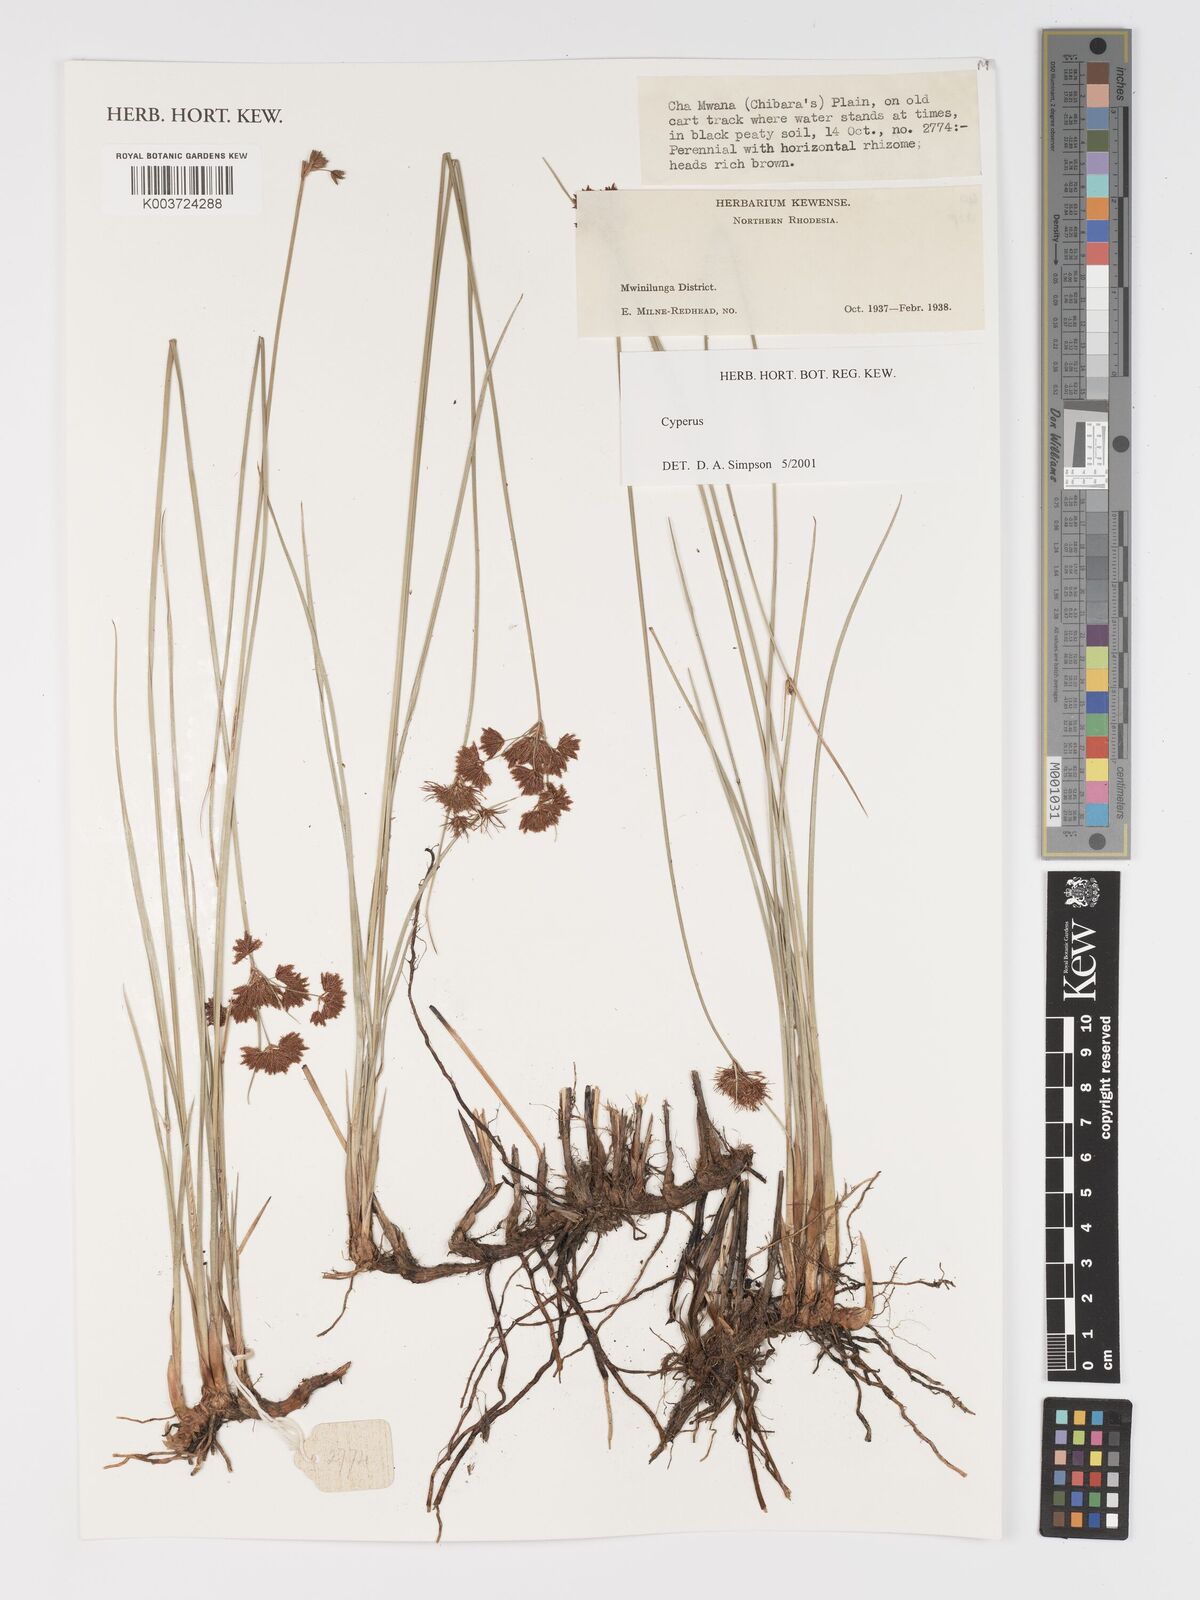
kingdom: Plantae
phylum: Tracheophyta
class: Liliopsida
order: Poales
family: Cyperaceae
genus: Cyperus
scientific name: Cyperus
